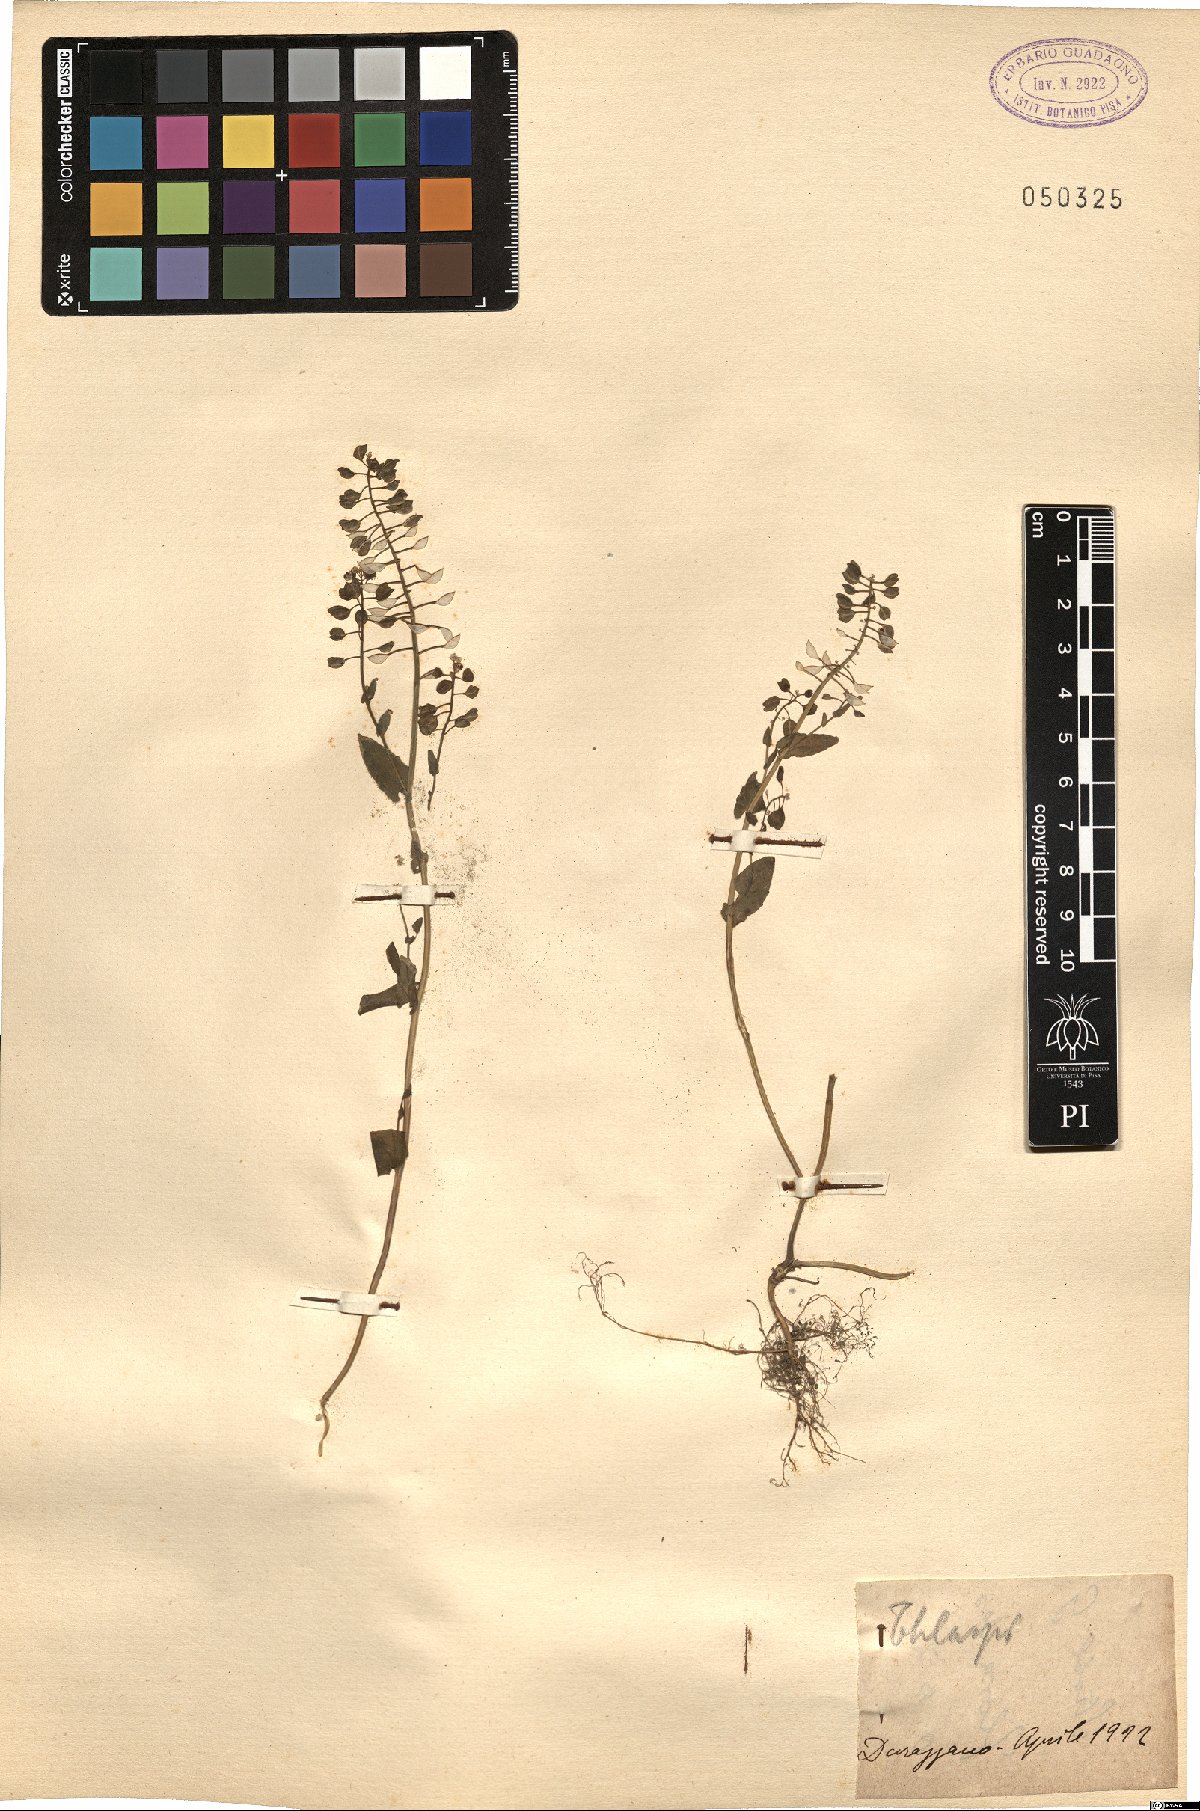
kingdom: Plantae
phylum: Tracheophyta
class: Magnoliopsida
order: Brassicales
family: Brassicaceae
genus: Thlaspi
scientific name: Thlaspi
